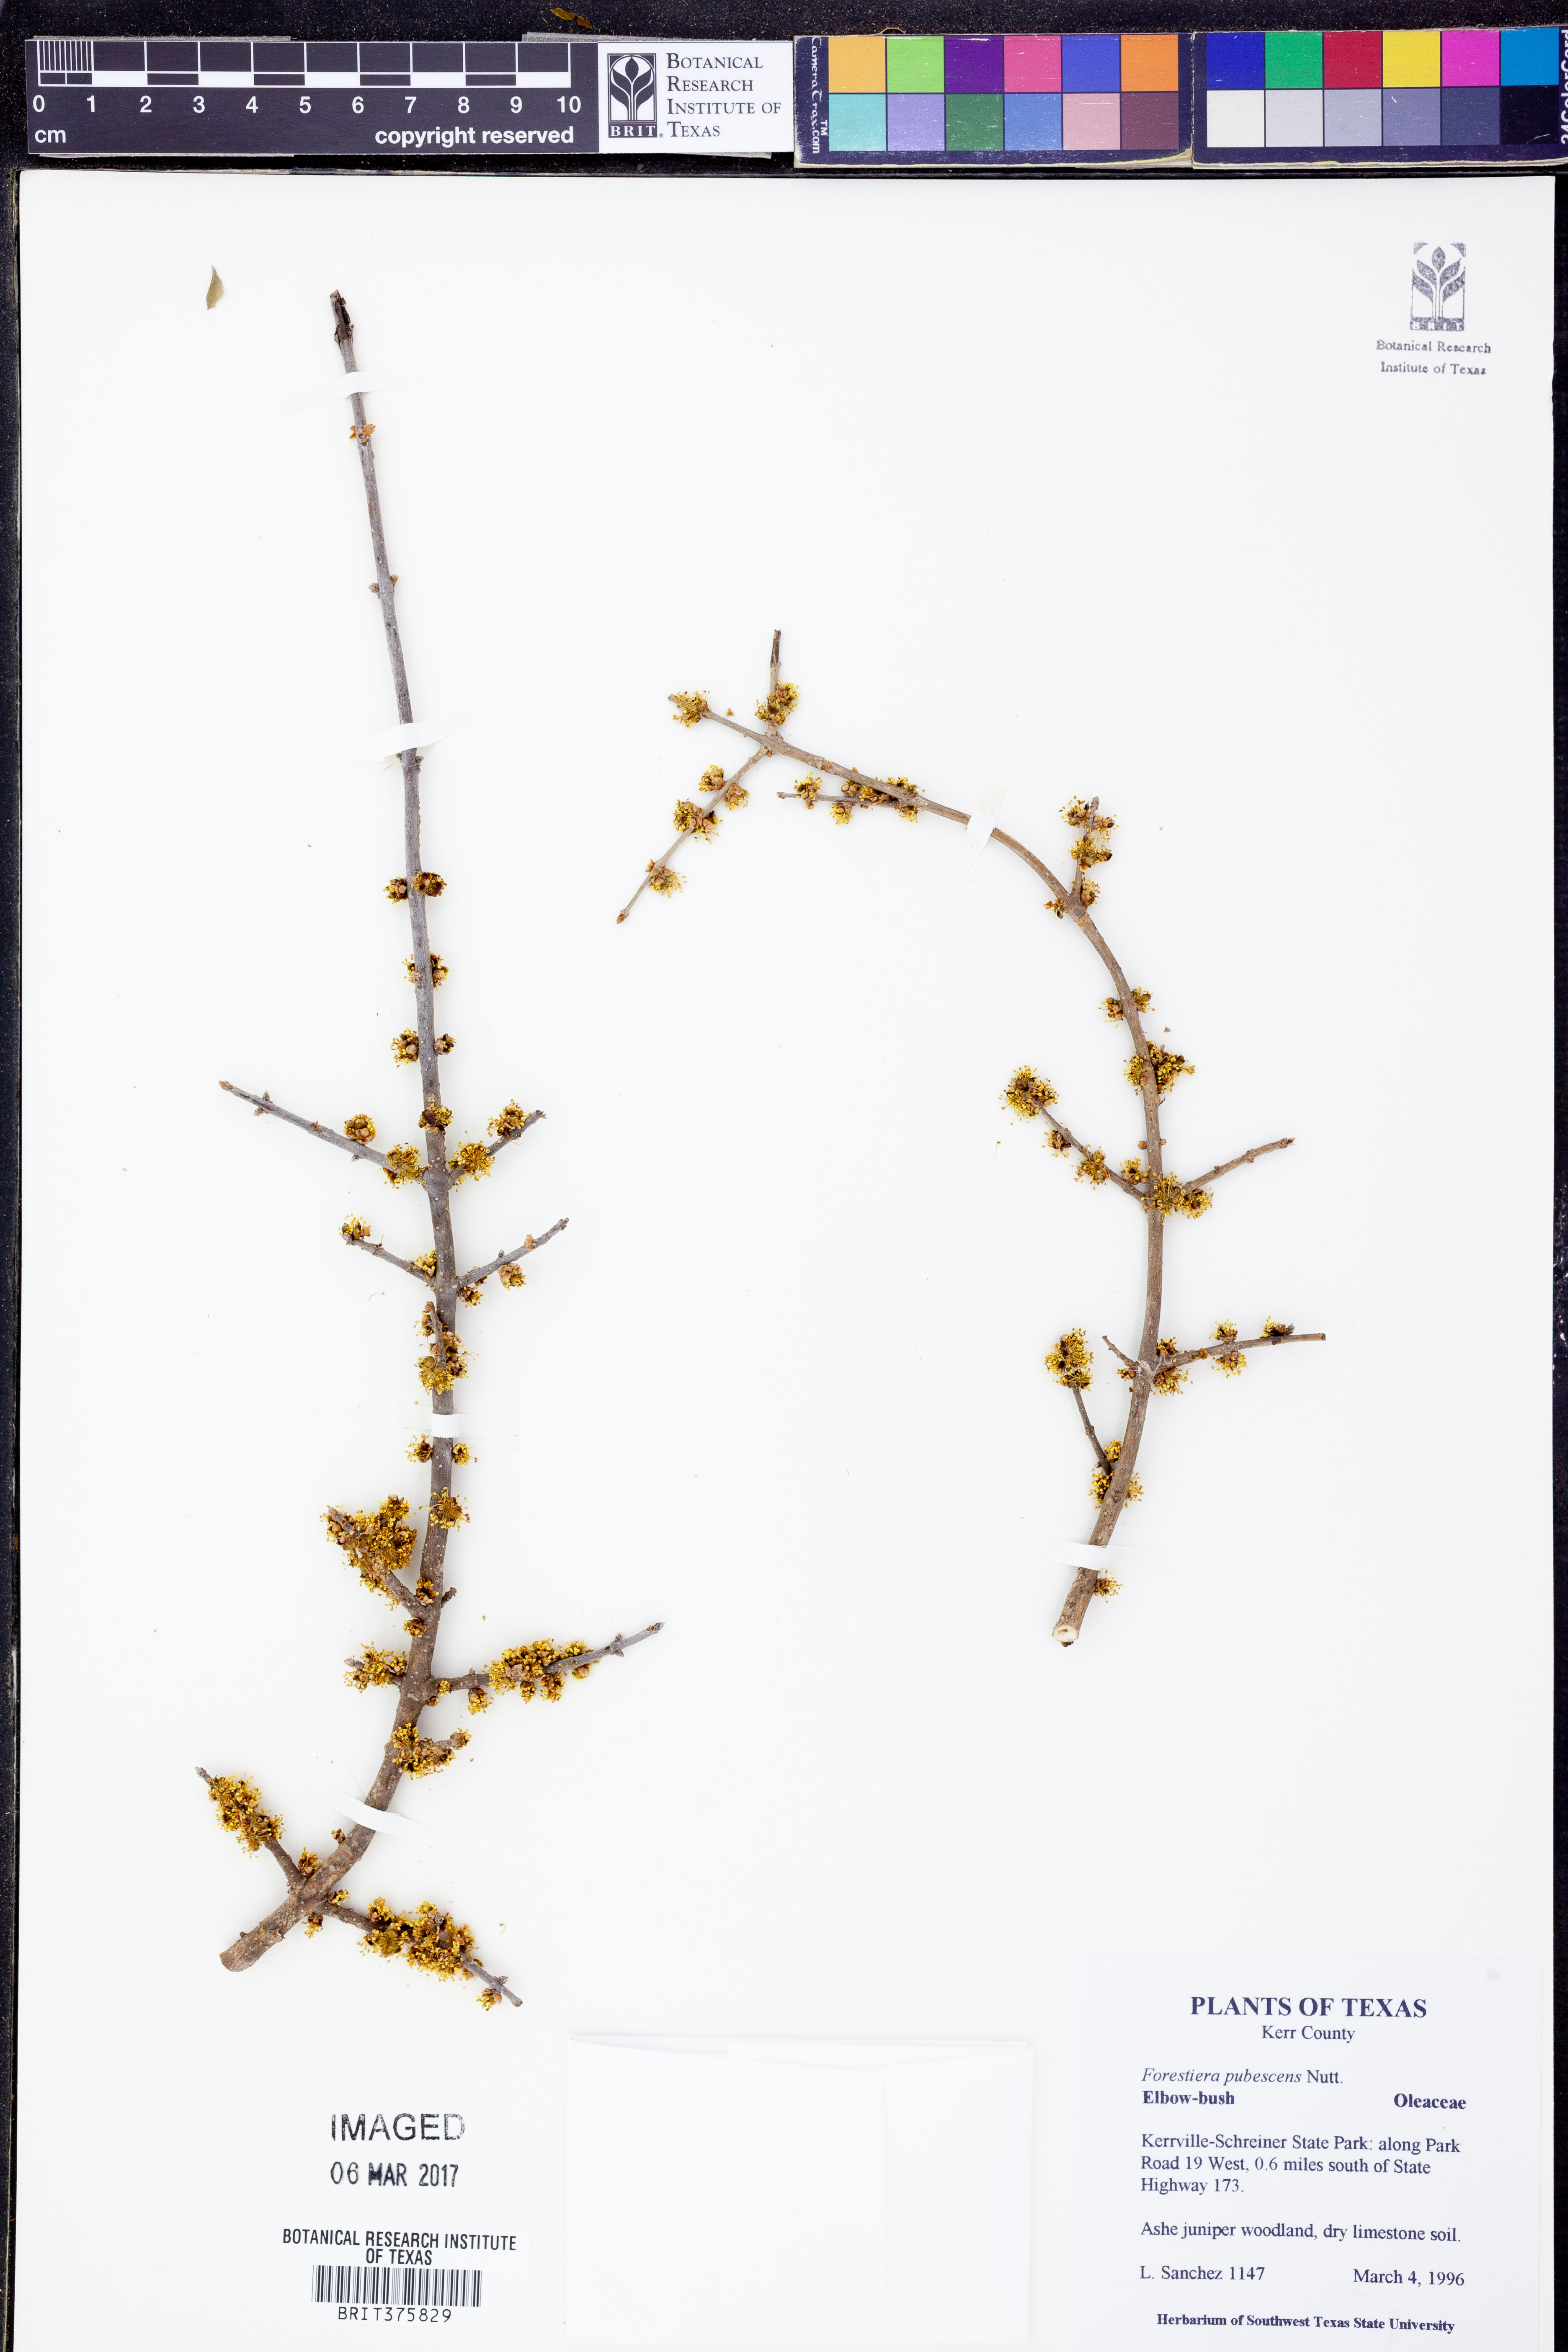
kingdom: Plantae
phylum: Tracheophyta
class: Magnoliopsida
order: Lamiales
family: Oleaceae
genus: Forestiera
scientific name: Forestiera pubescens
